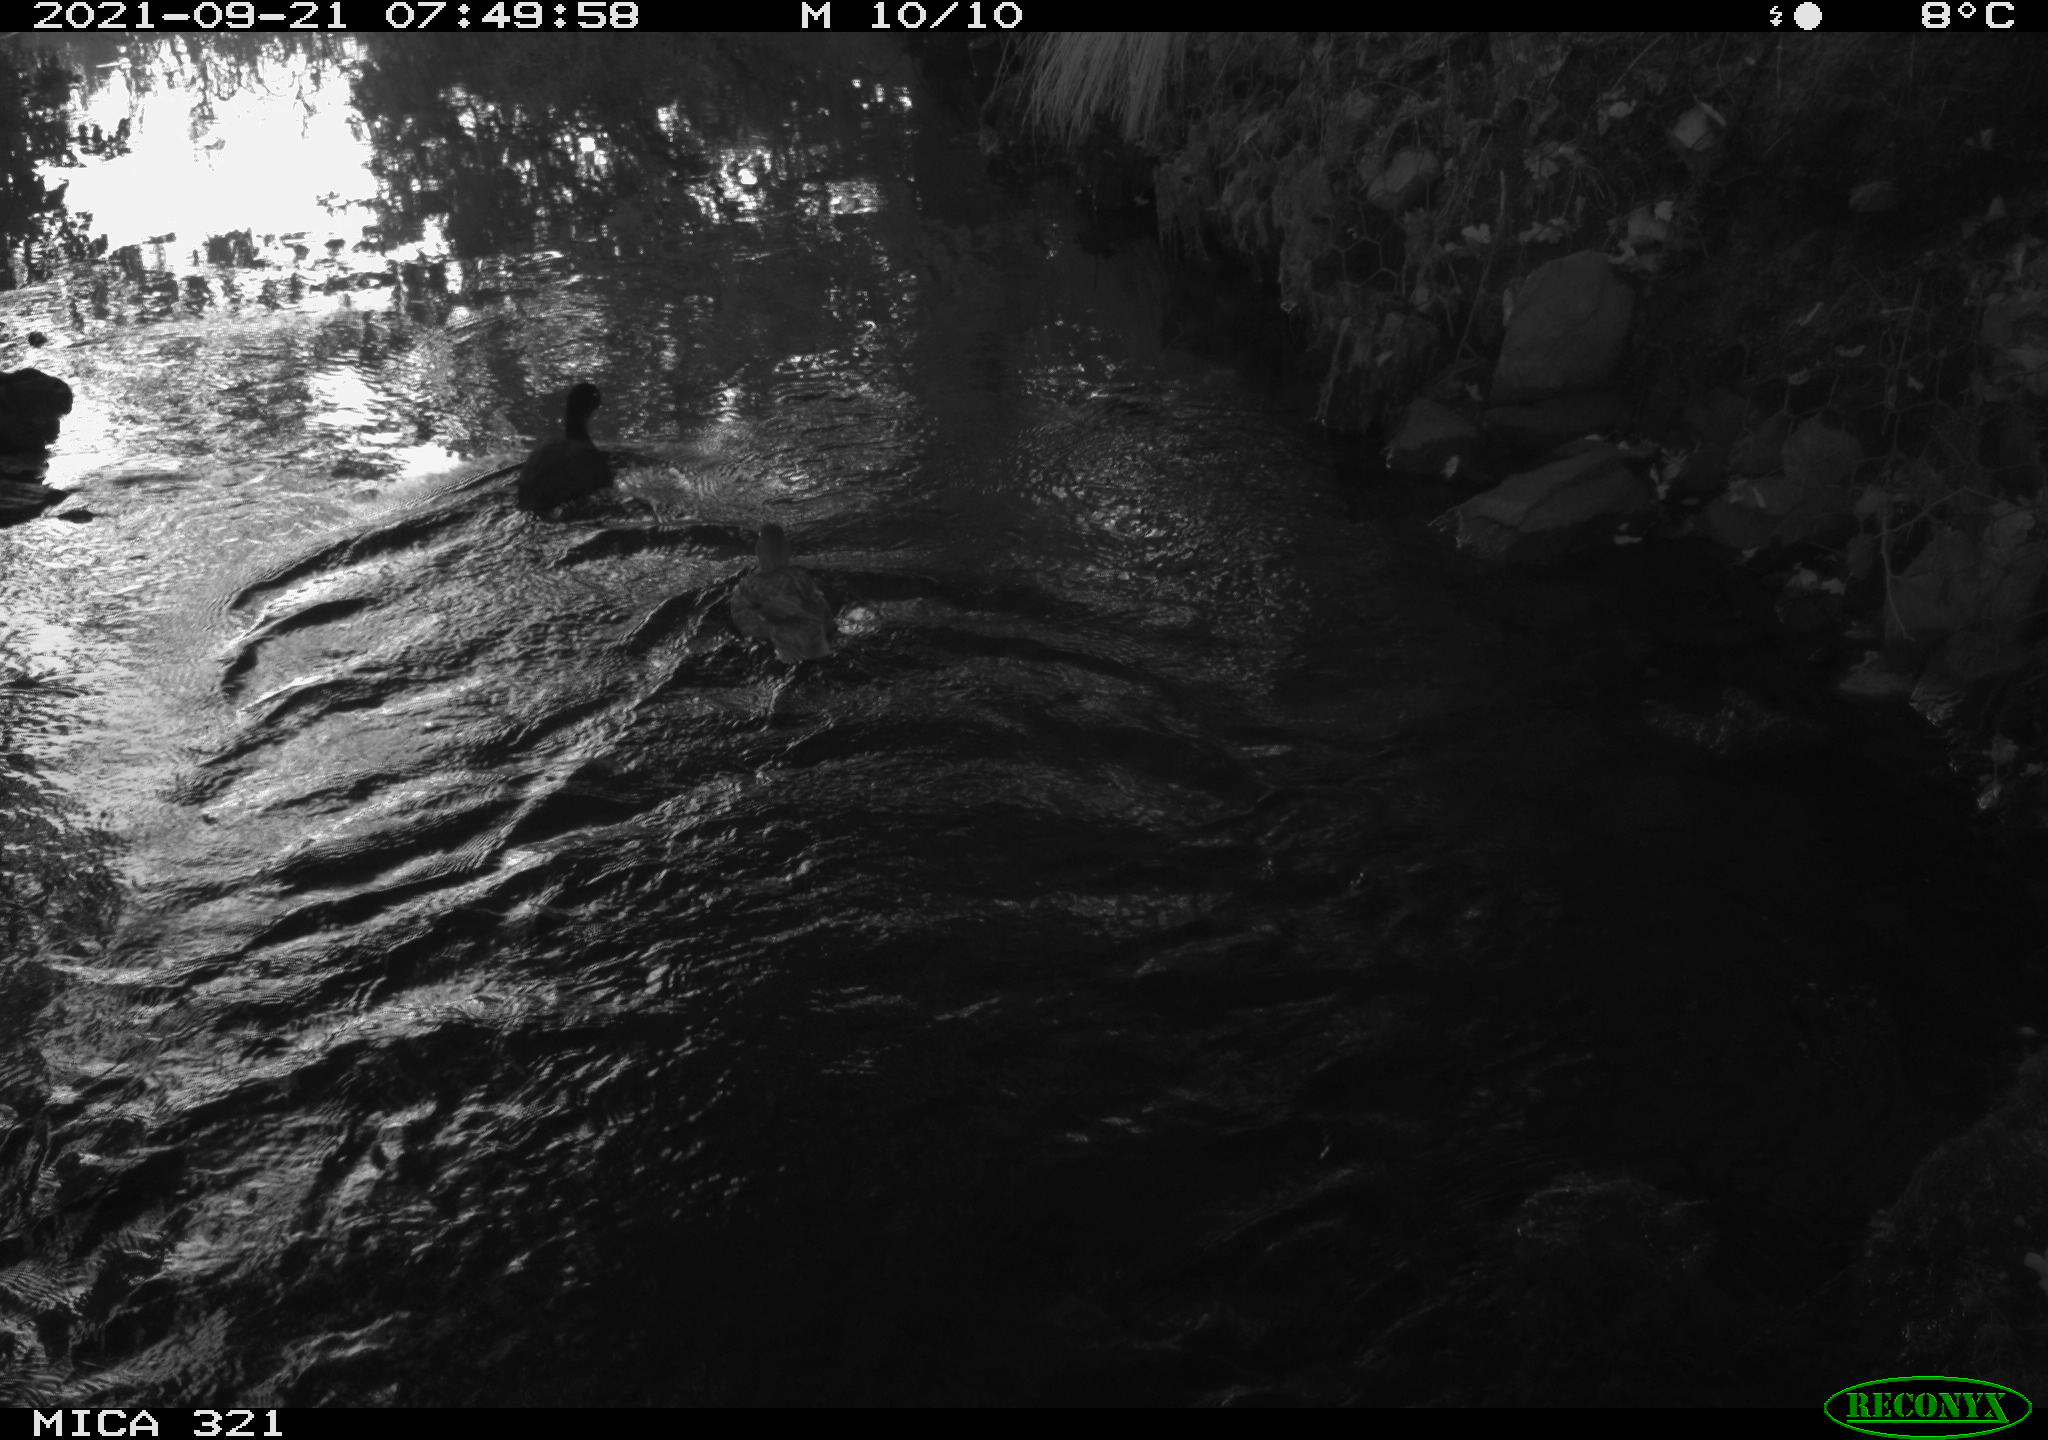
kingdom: Animalia
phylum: Chordata
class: Aves
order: Gruiformes
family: Rallidae
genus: Fulica
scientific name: Fulica atra
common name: Eurasian coot
